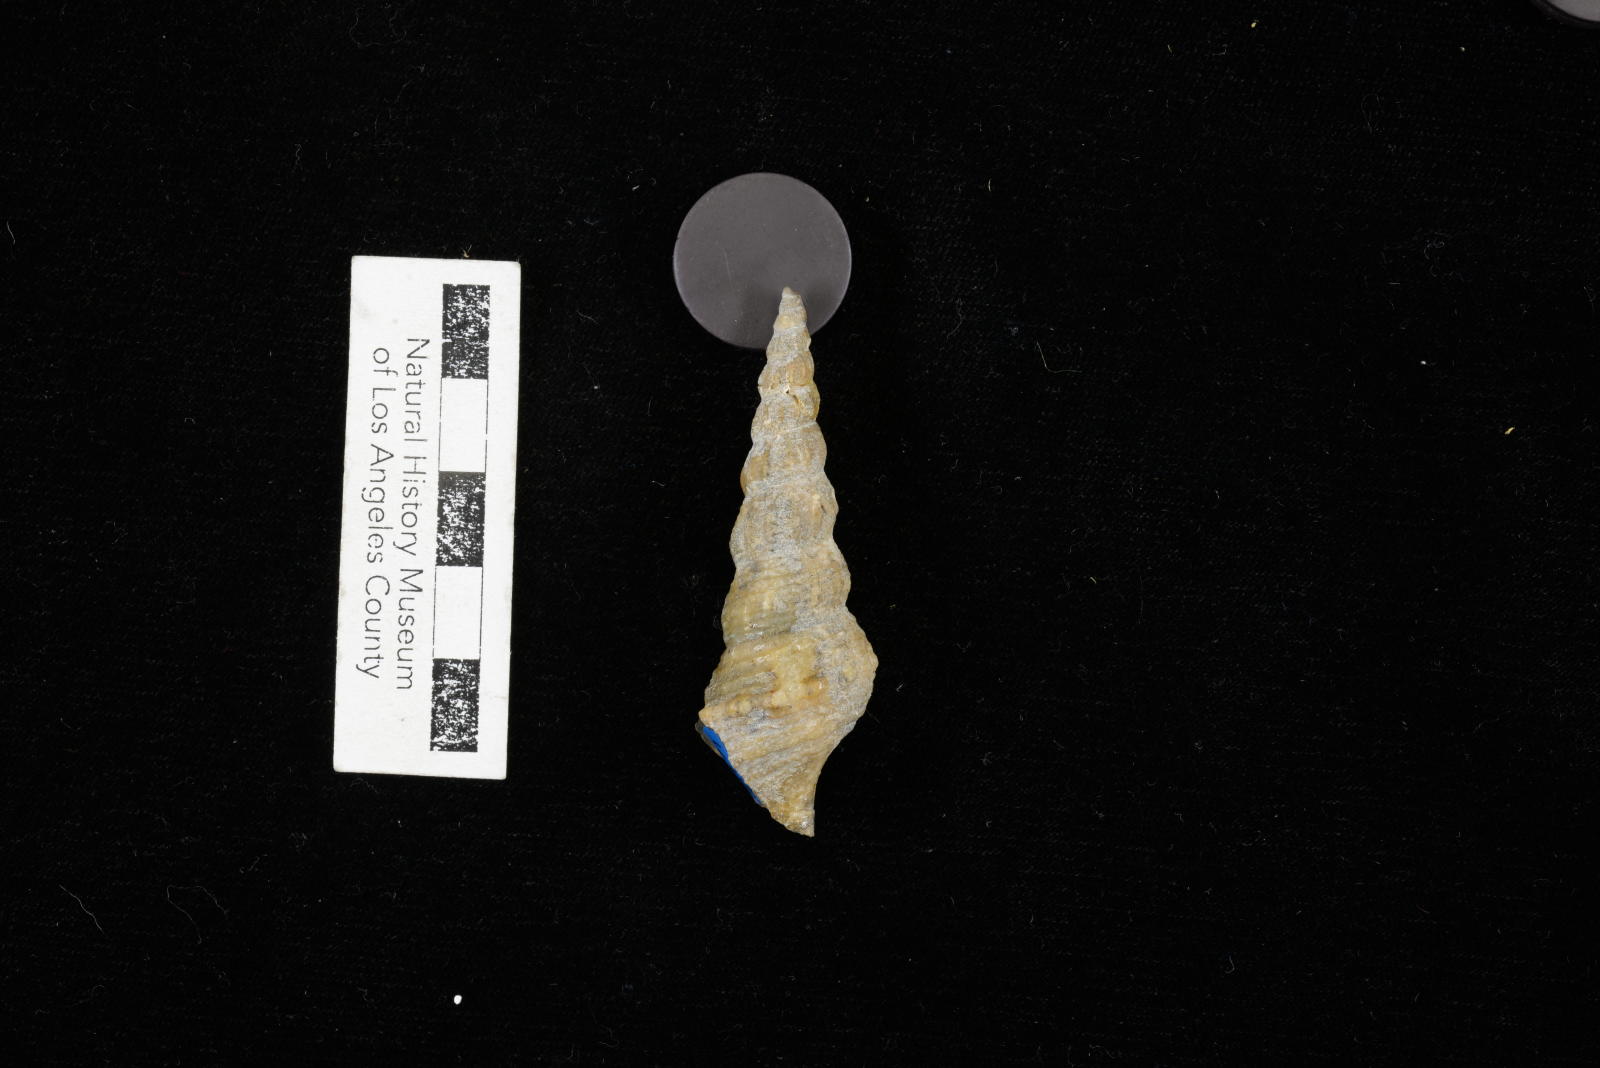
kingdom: Animalia
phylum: Mollusca
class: Gastropoda
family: Metacerithiidae
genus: Cimolithium
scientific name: Cimolithium eleanorae
